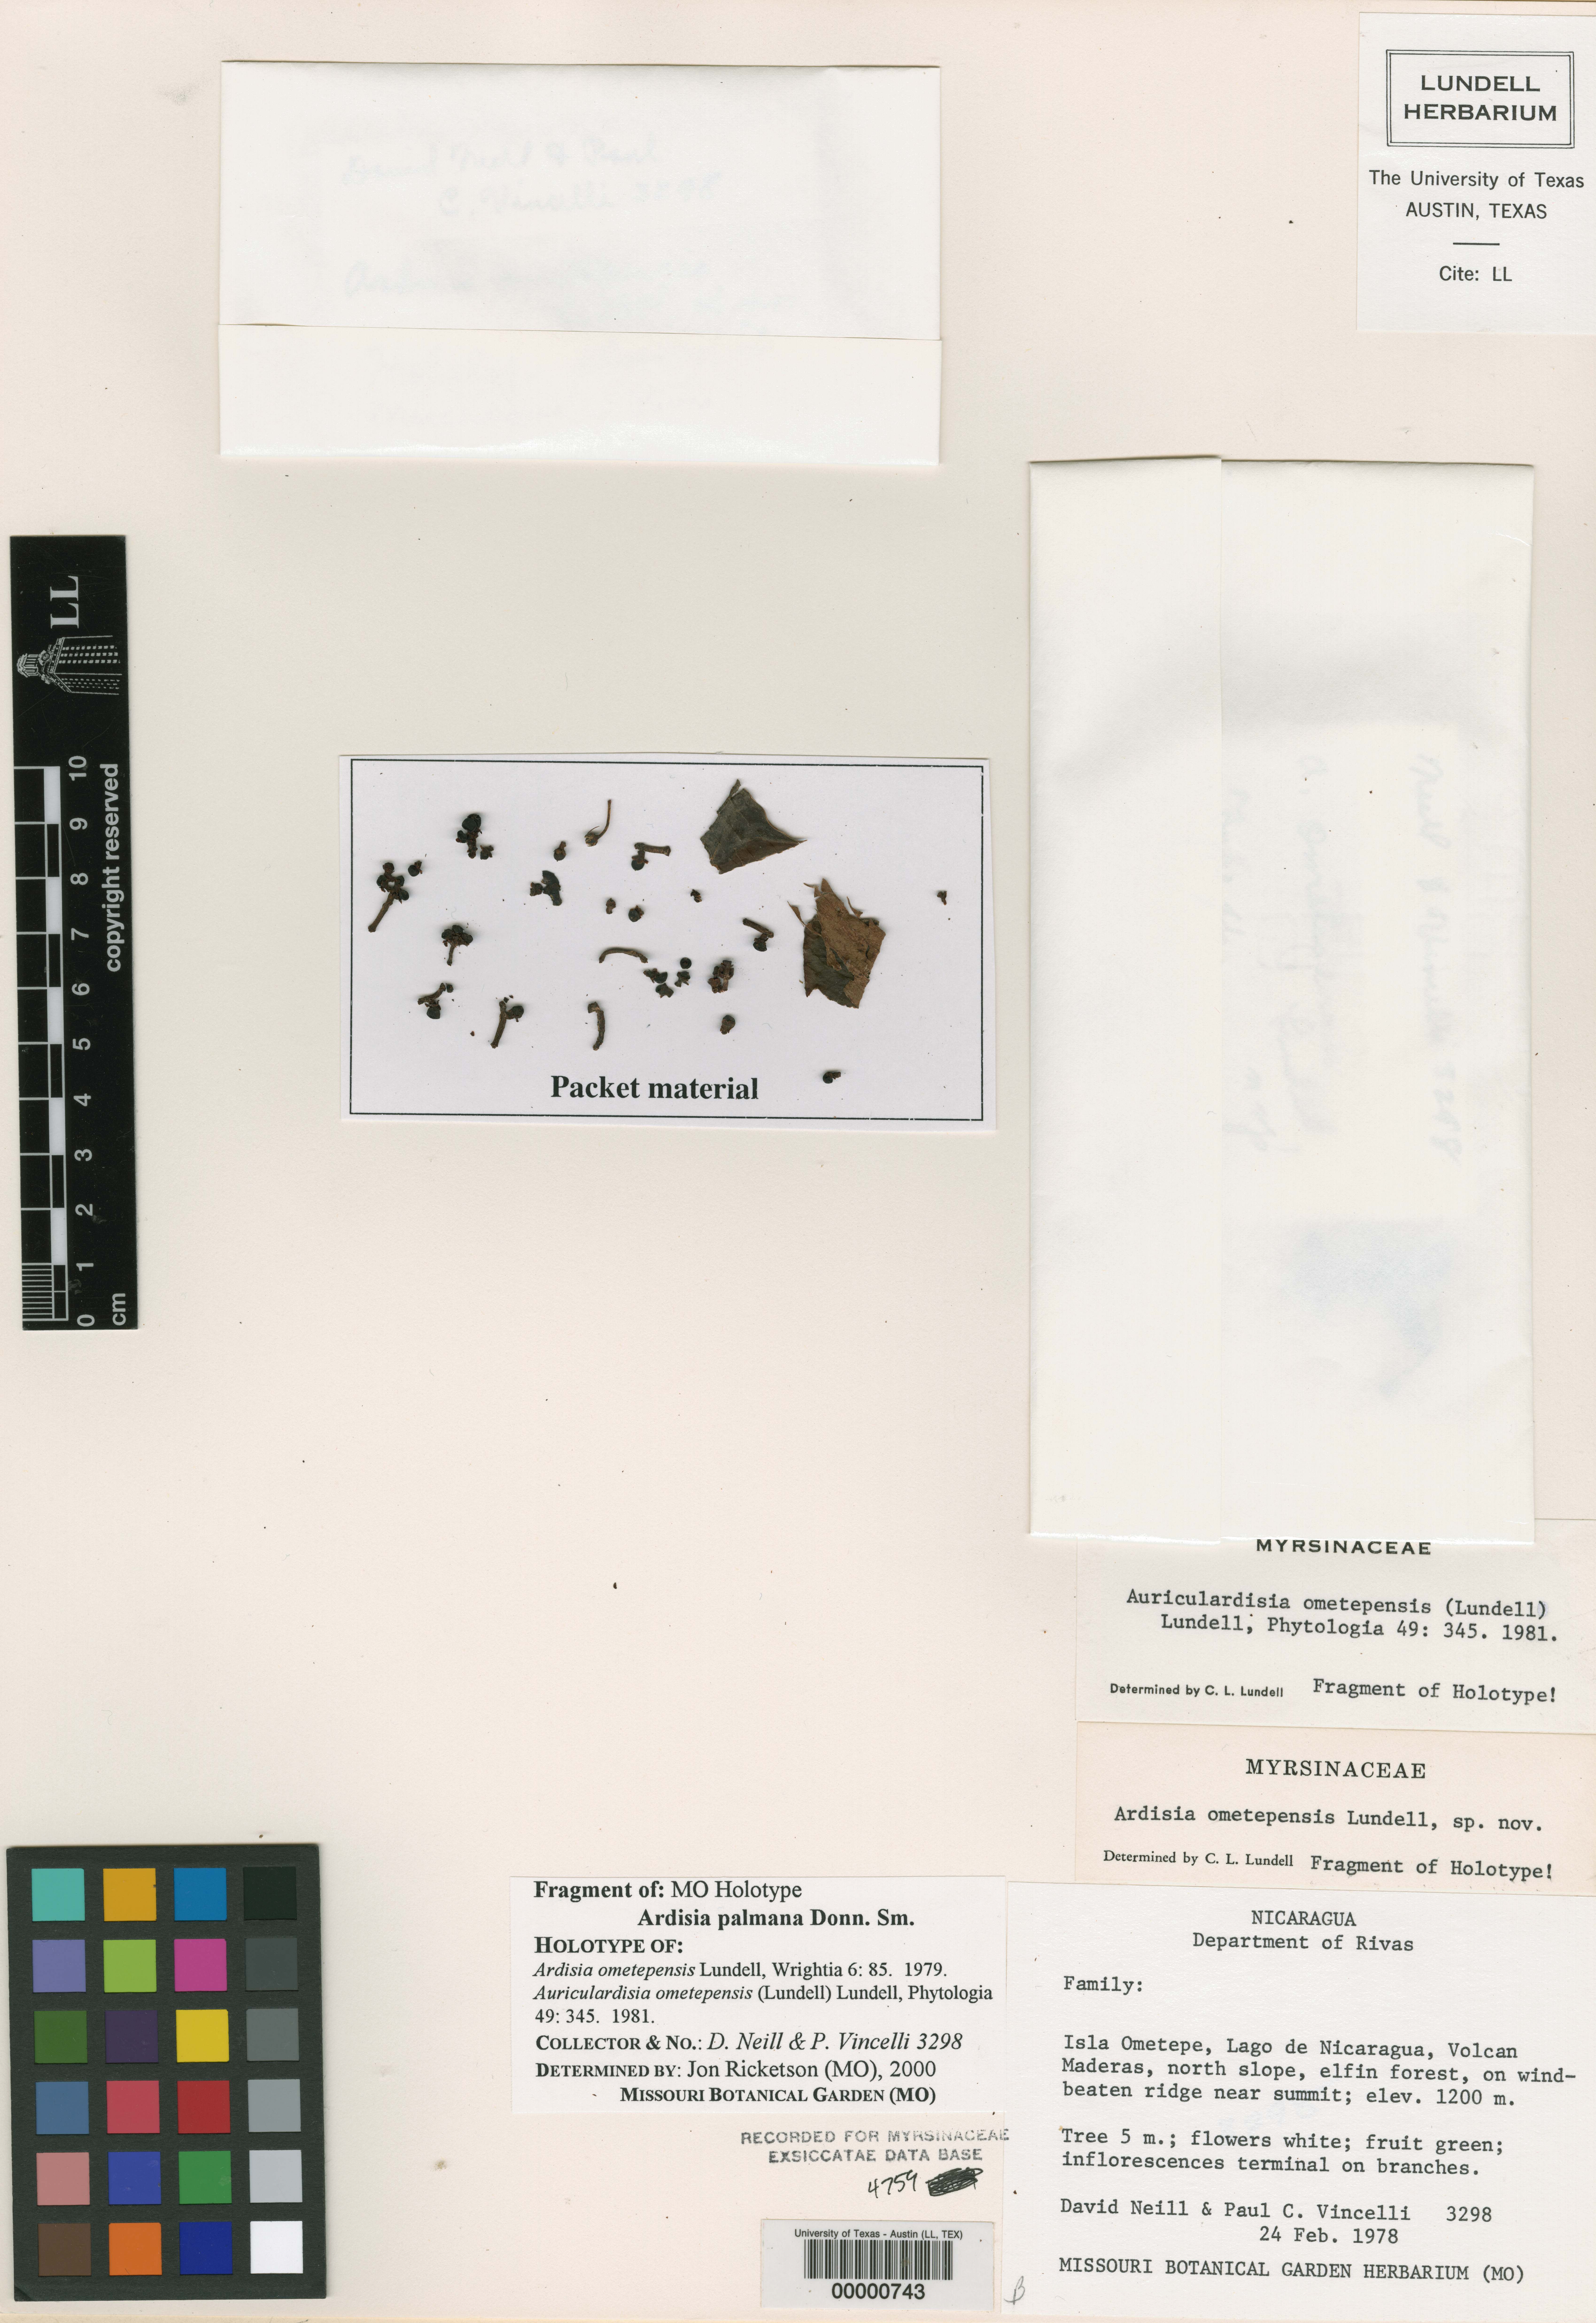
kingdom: Plantae
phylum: Tracheophyta
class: Magnoliopsida
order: Ericales
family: Primulaceae
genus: Ardisia
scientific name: Ardisia palmana
